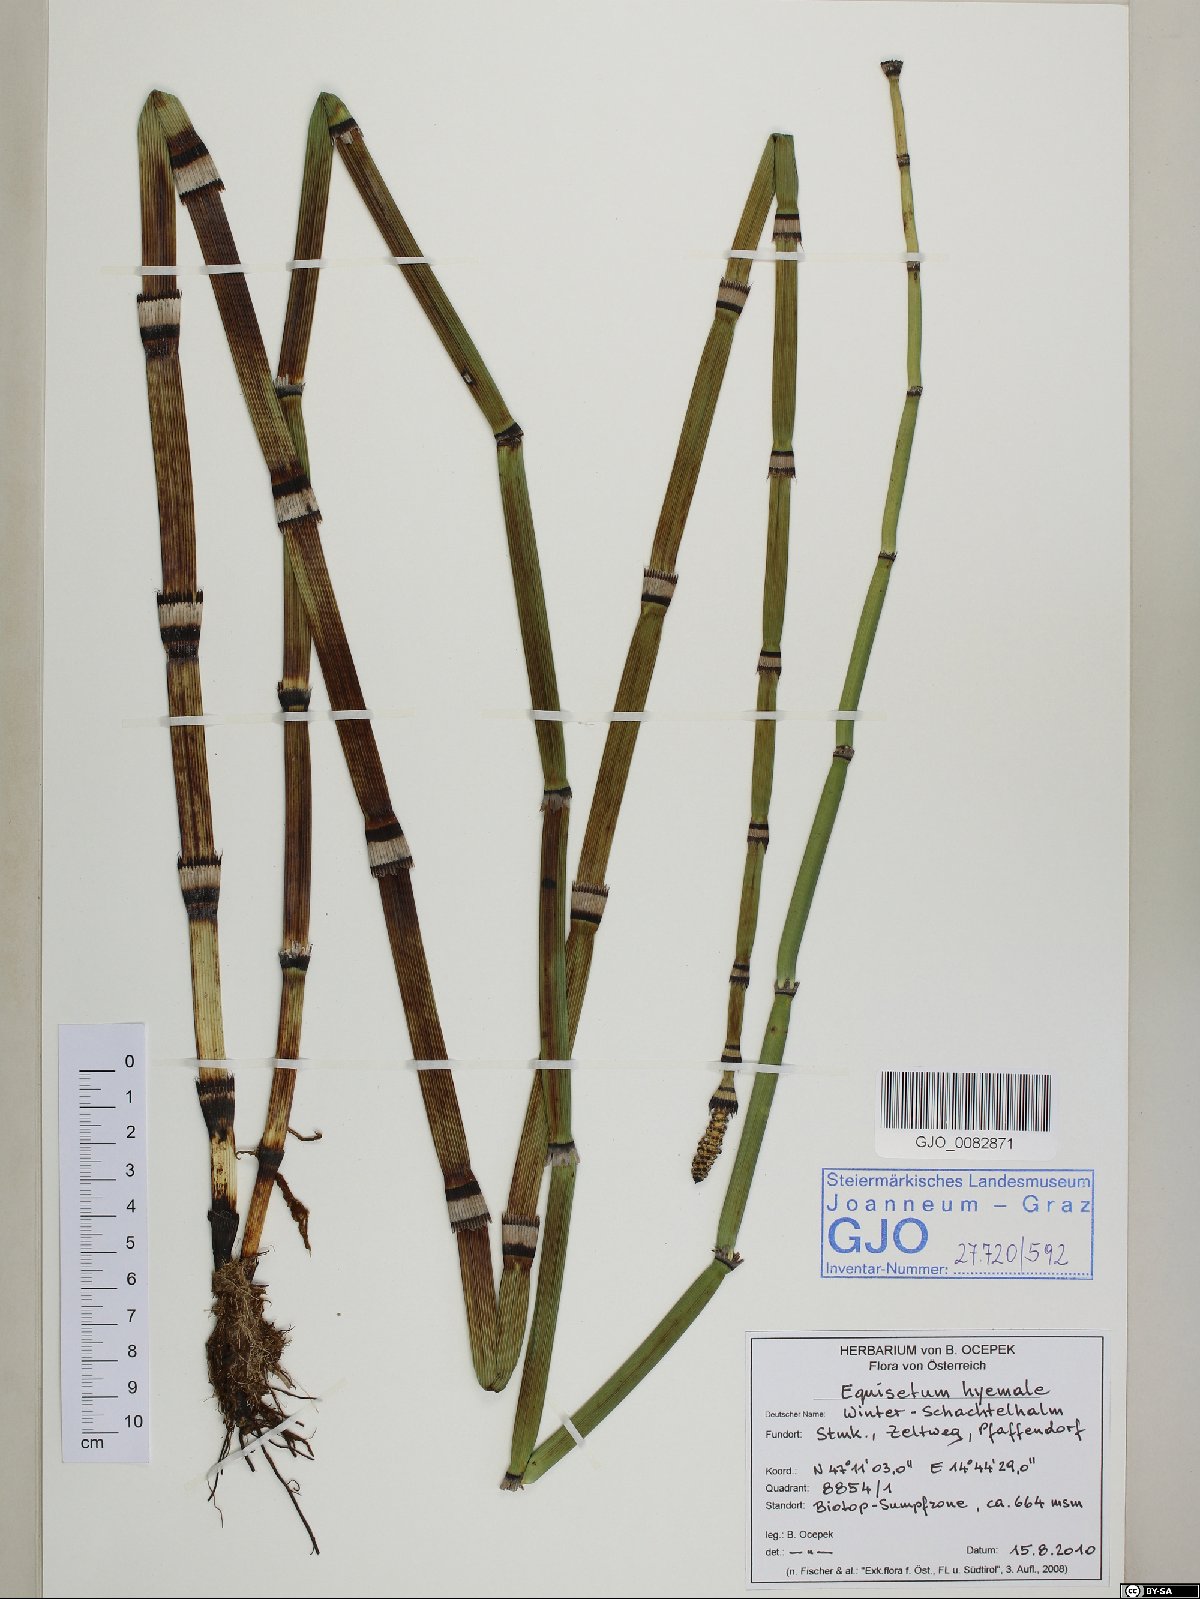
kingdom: Plantae
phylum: Tracheophyta
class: Polypodiopsida
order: Equisetales
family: Equisetaceae
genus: Equisetum
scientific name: Equisetum hyemale
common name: Rough horsetail
